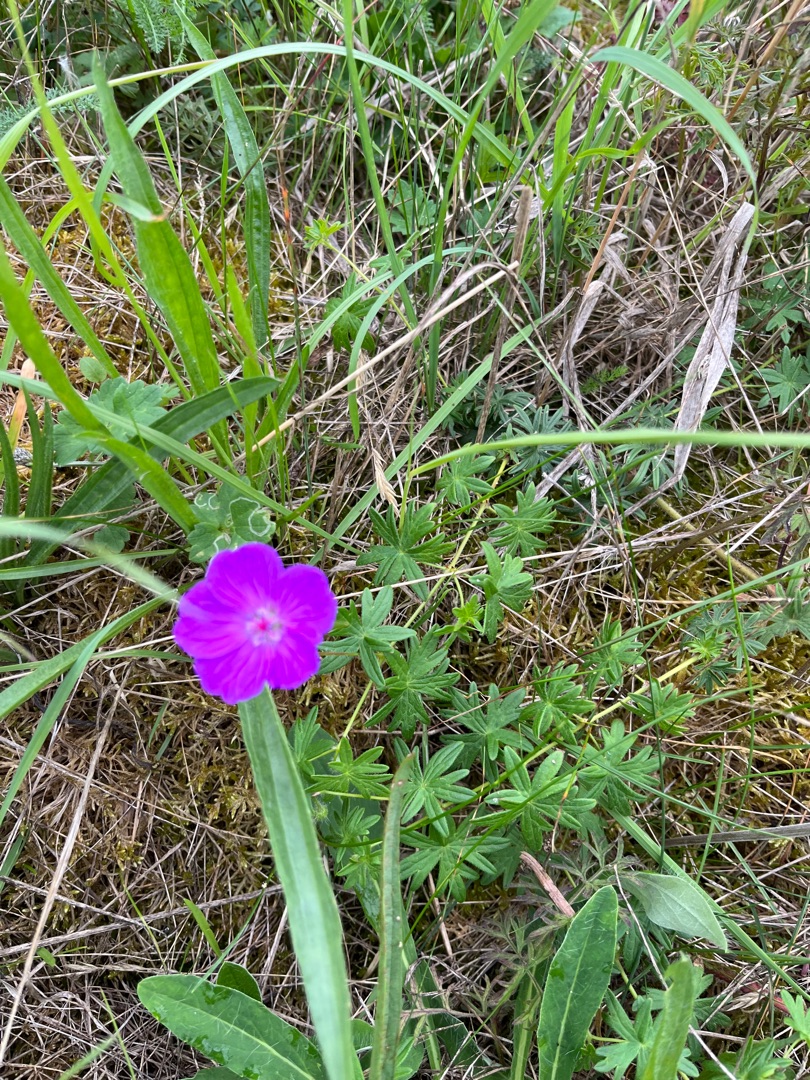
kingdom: Plantae
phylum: Tracheophyta
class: Magnoliopsida
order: Geraniales
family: Geraniaceae
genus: Geranium
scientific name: Geranium sanguineum
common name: Blodrød storkenæb
